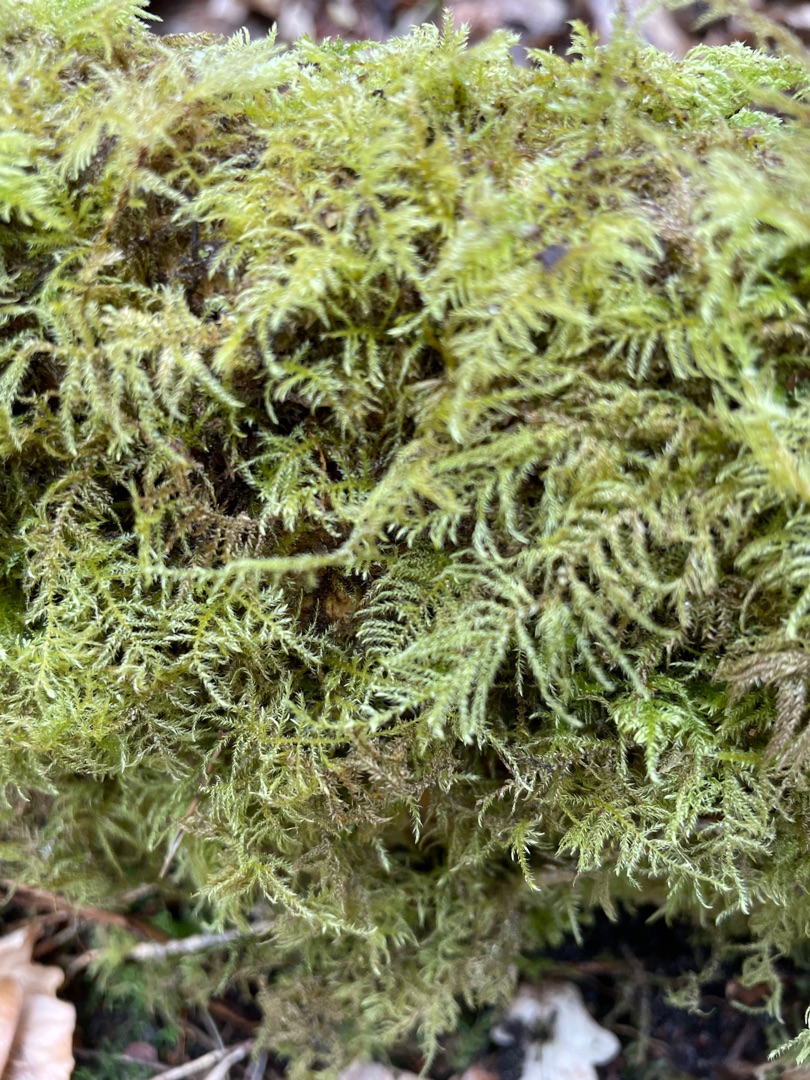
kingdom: Plantae
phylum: Bryophyta
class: Bryopsida
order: Hypnales
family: Brachytheciaceae
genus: Kindbergia
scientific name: Kindbergia praelonga
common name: Forskelligbladet vortetand
